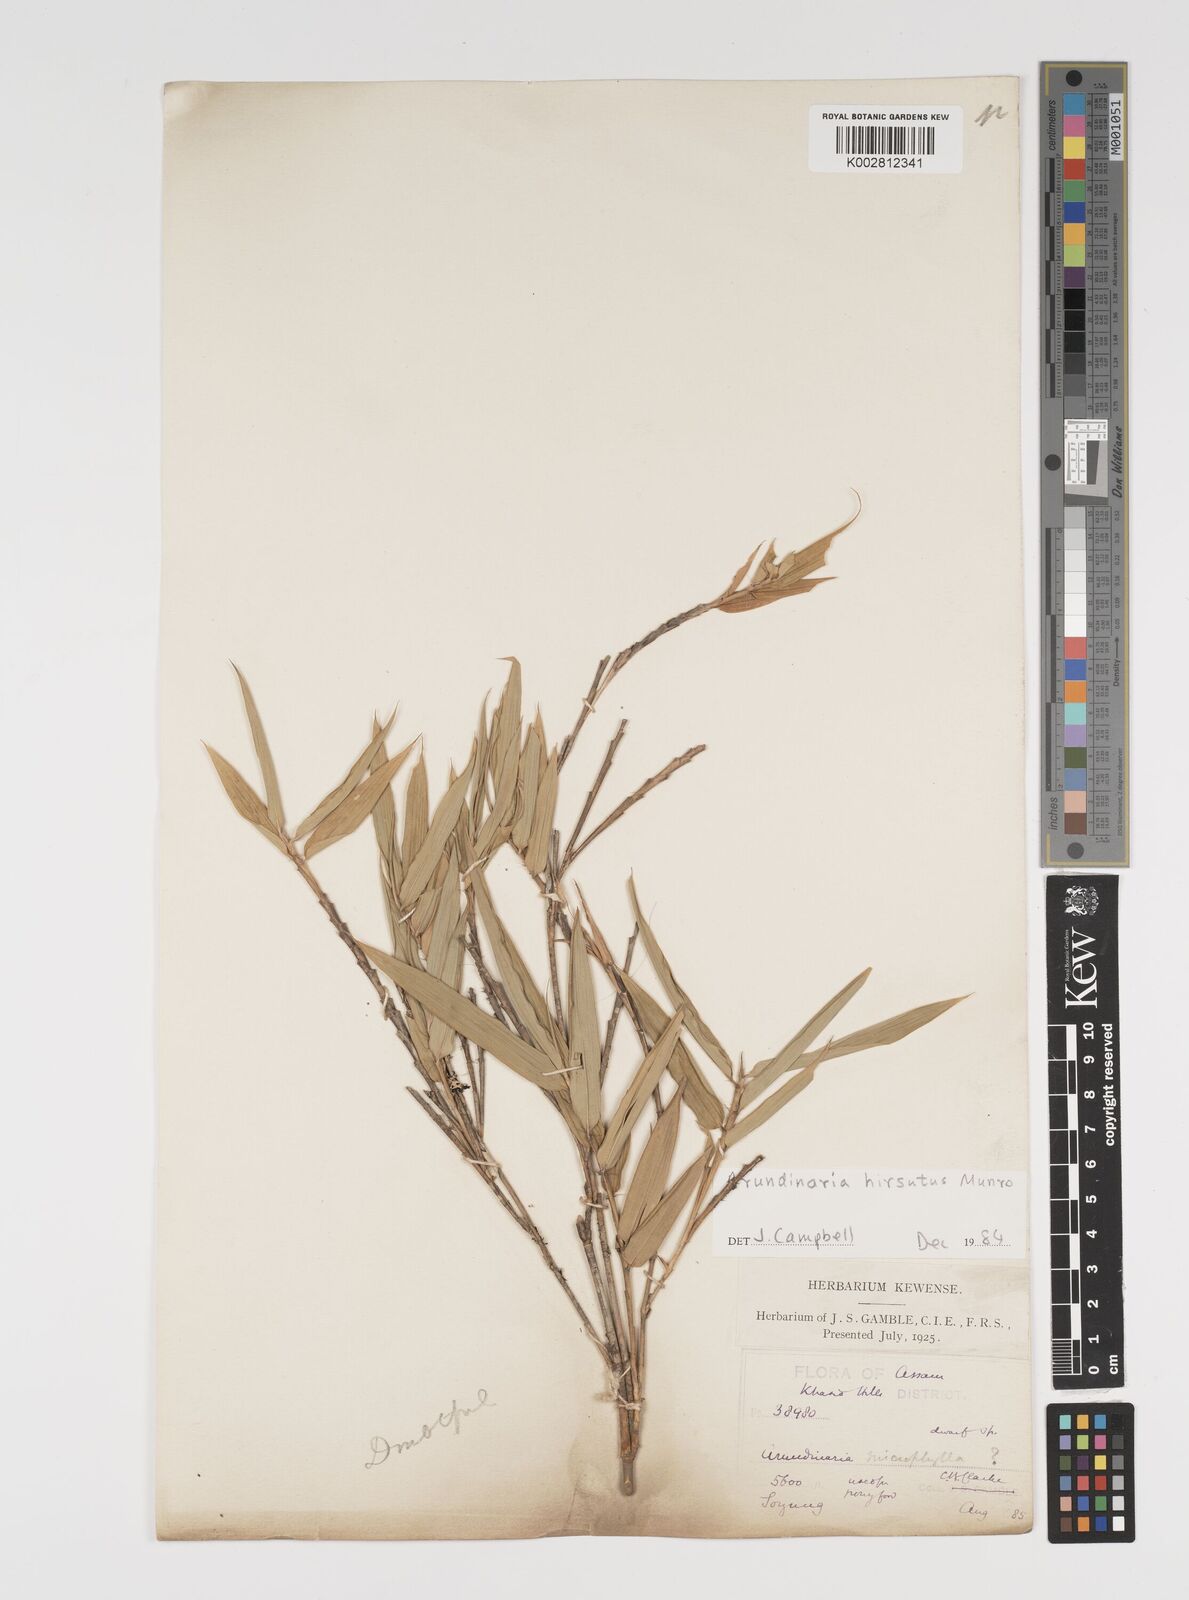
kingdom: Plantae
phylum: Tracheophyta
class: Liliopsida
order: Poales
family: Poaceae
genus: Yushania
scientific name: Yushania hirsuta
